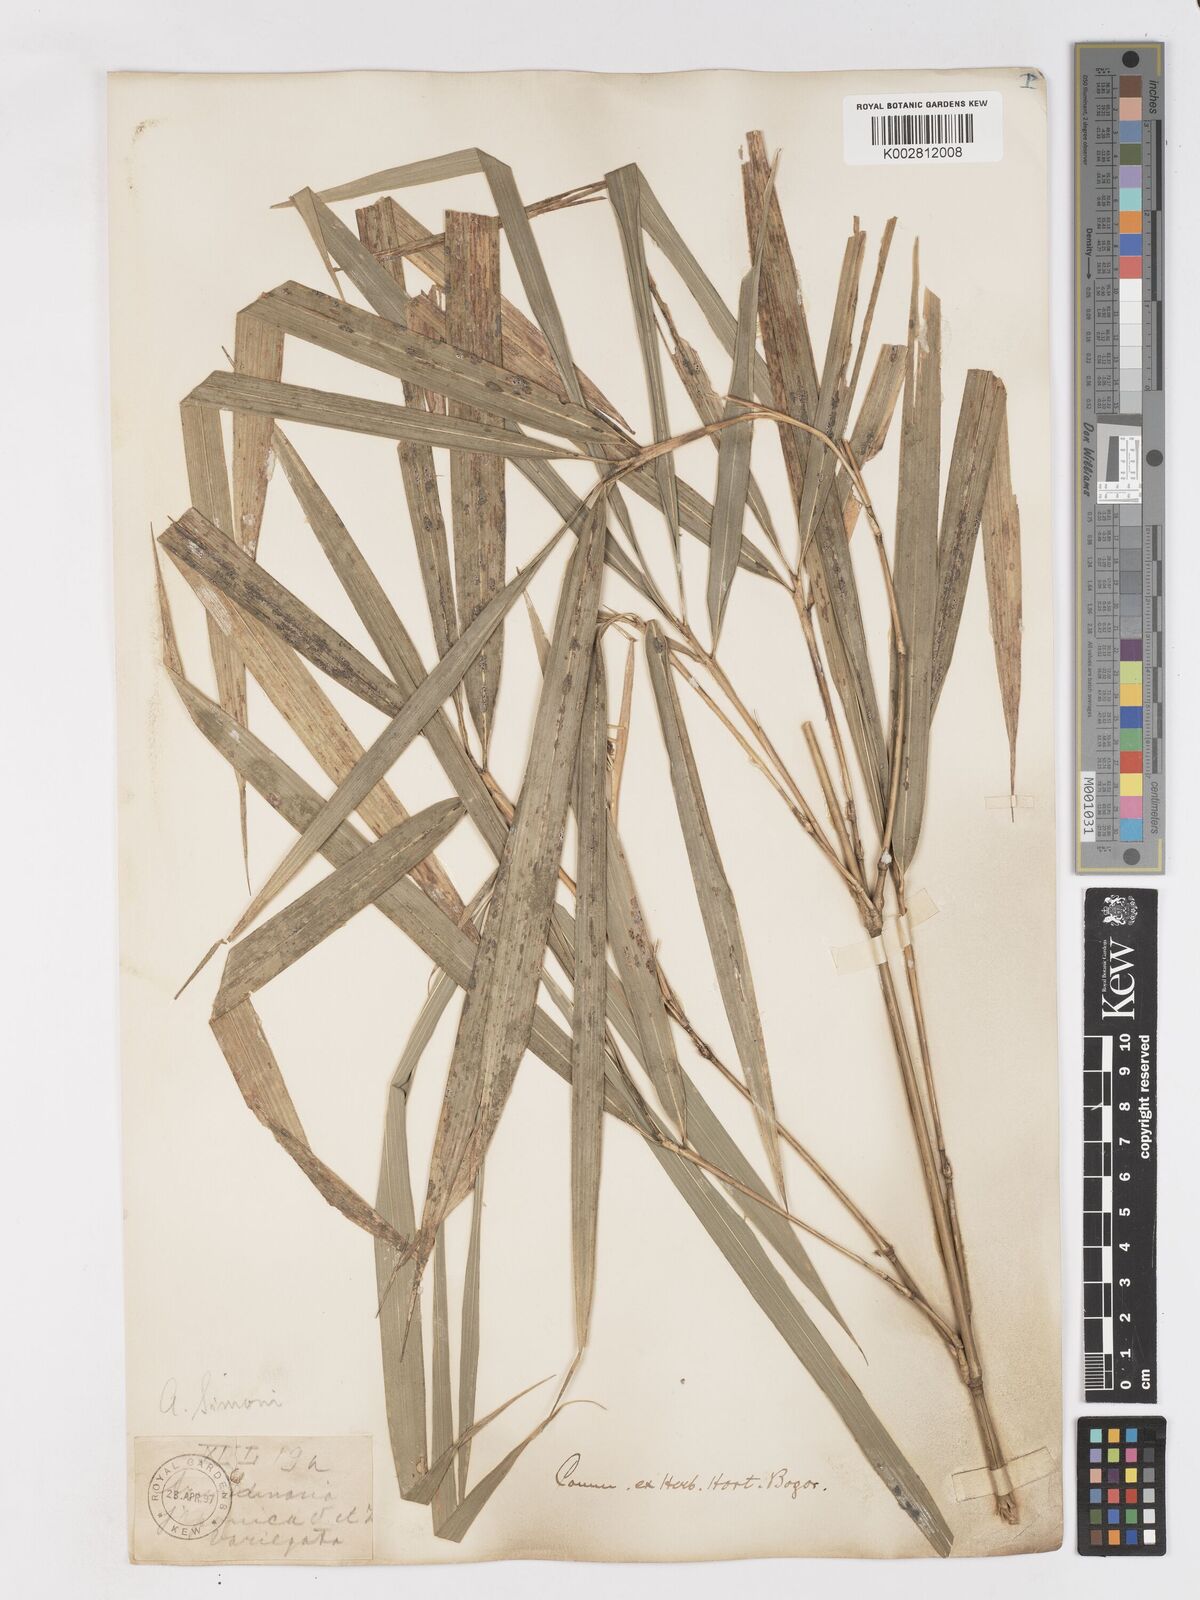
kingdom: Plantae
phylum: Tracheophyta
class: Liliopsida
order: Poales
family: Poaceae
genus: Pleioblastus
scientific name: Pleioblastus simonii
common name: Simon bamboo
